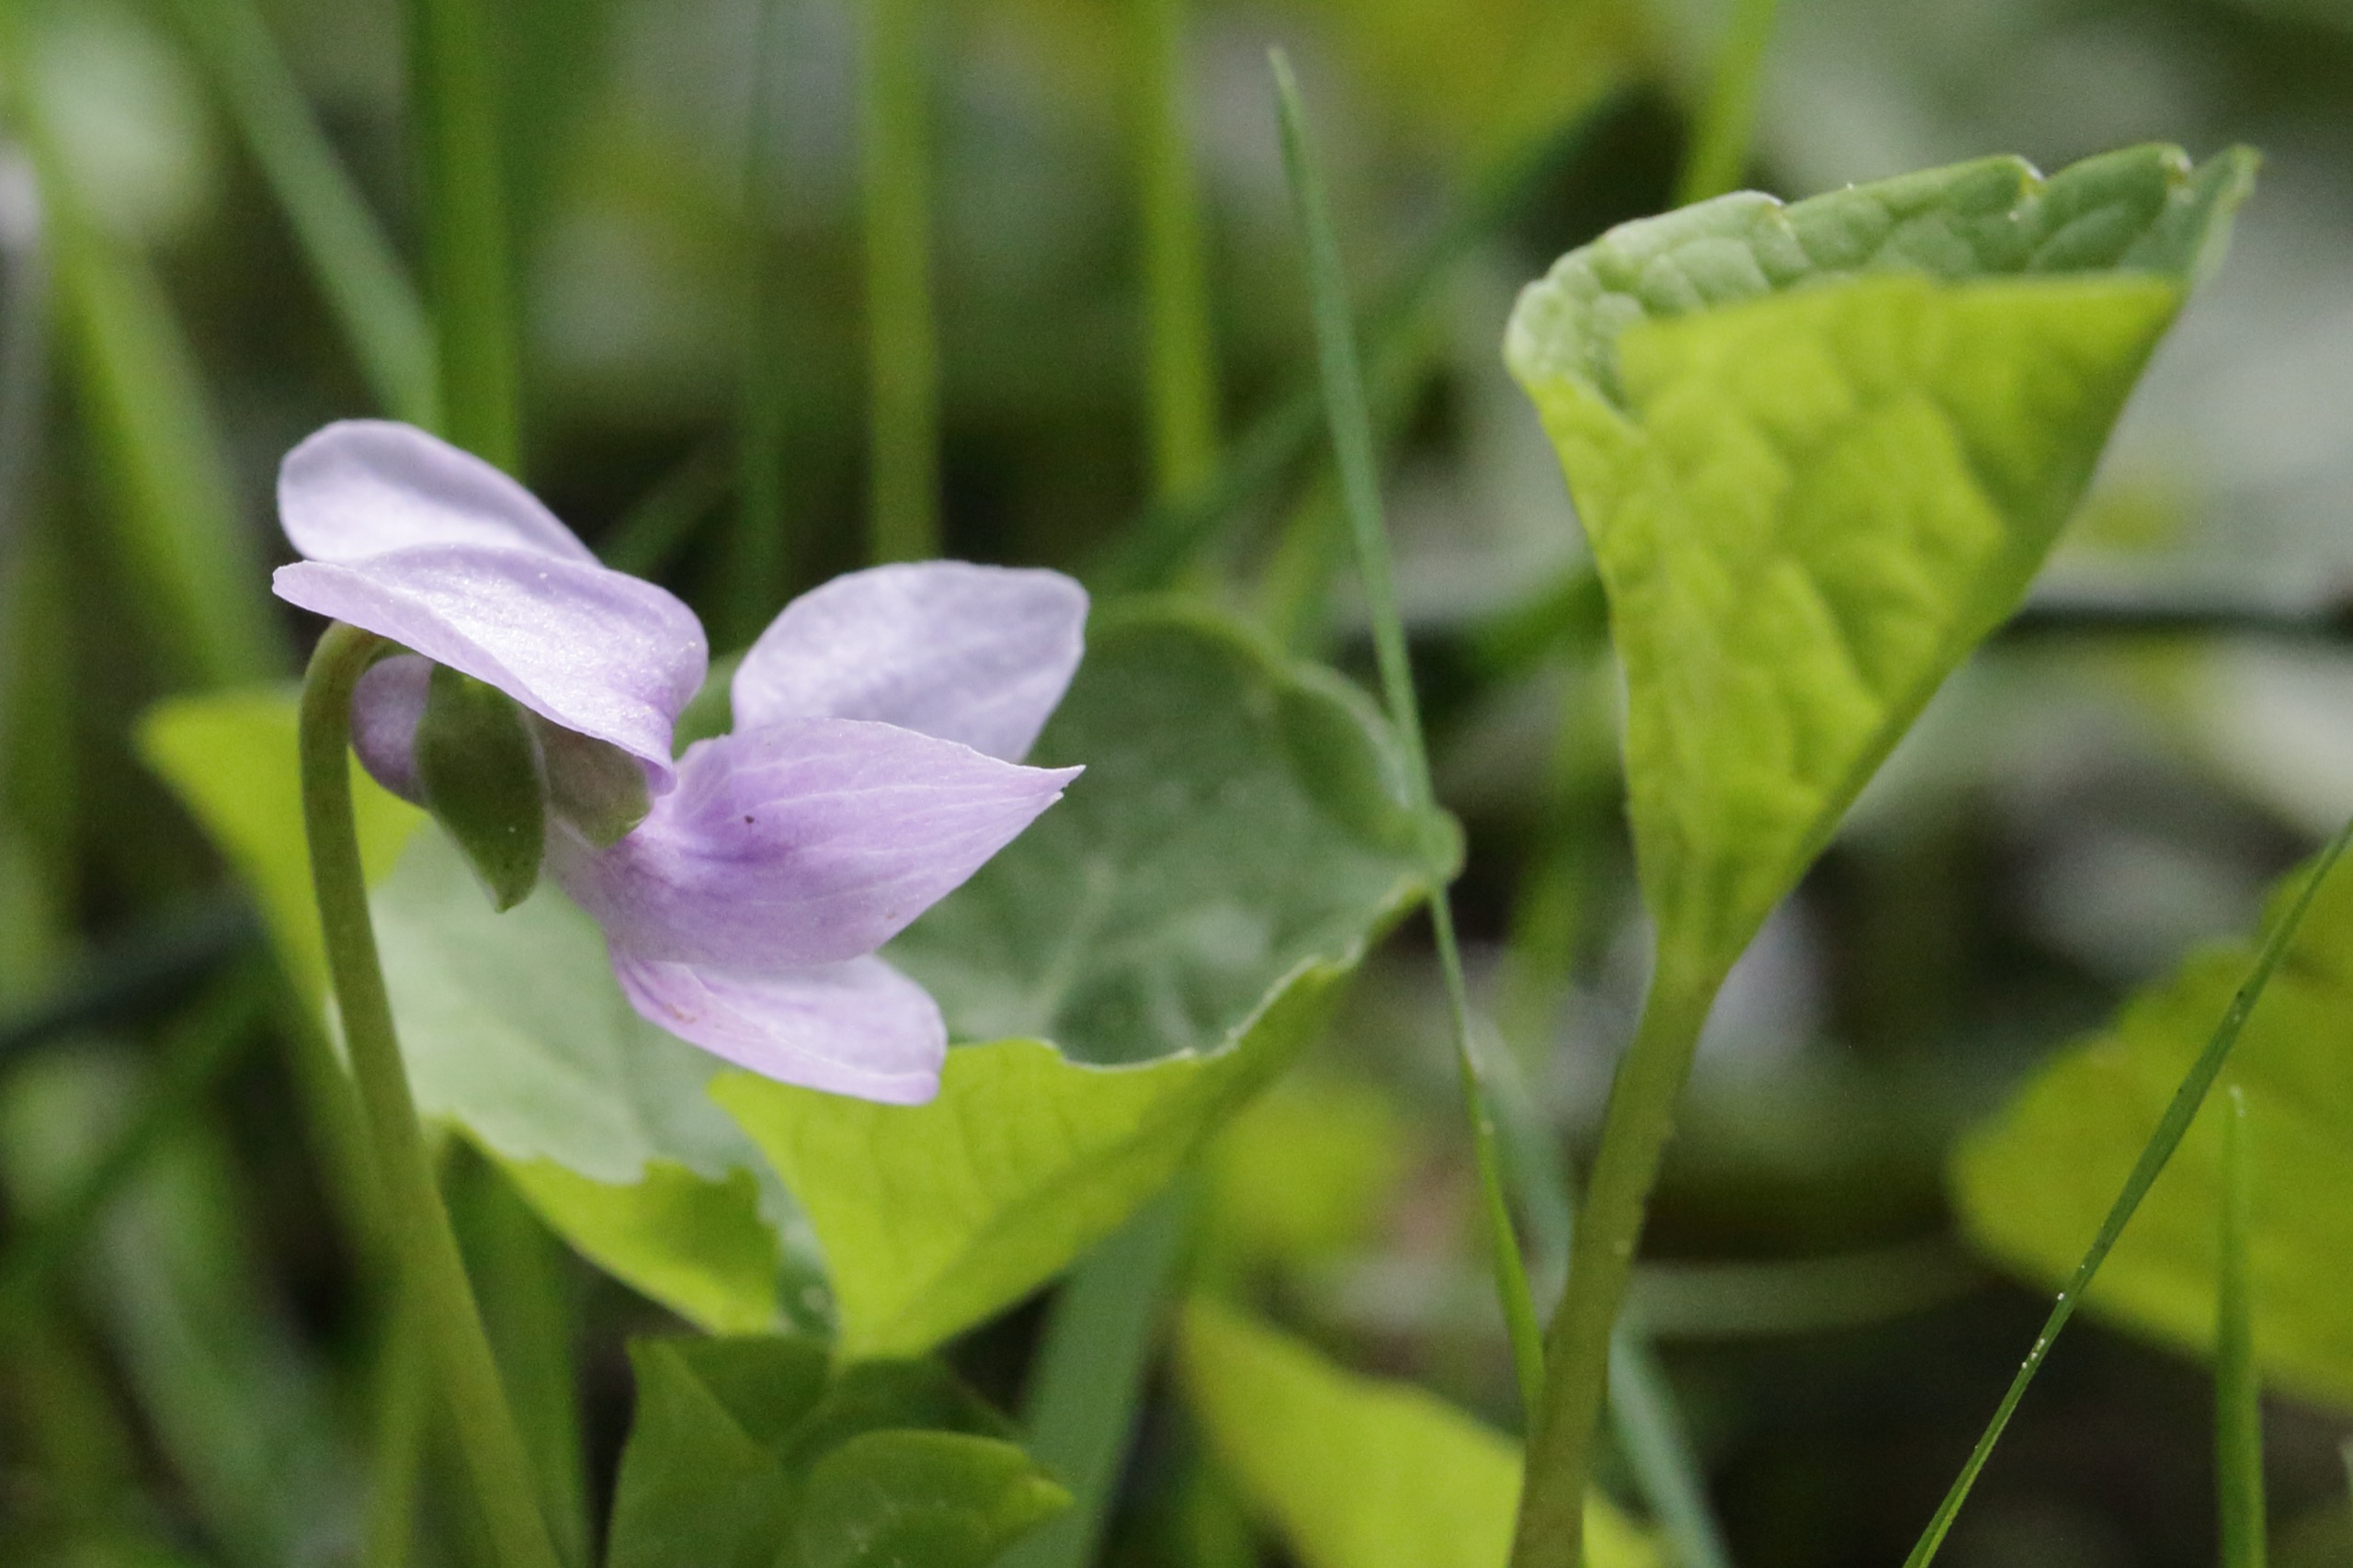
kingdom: Plantae
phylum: Tracheophyta
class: Magnoliopsida
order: Malpighiales
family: Violaceae
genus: Viola
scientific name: Viola palustris
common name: Eng-viol
